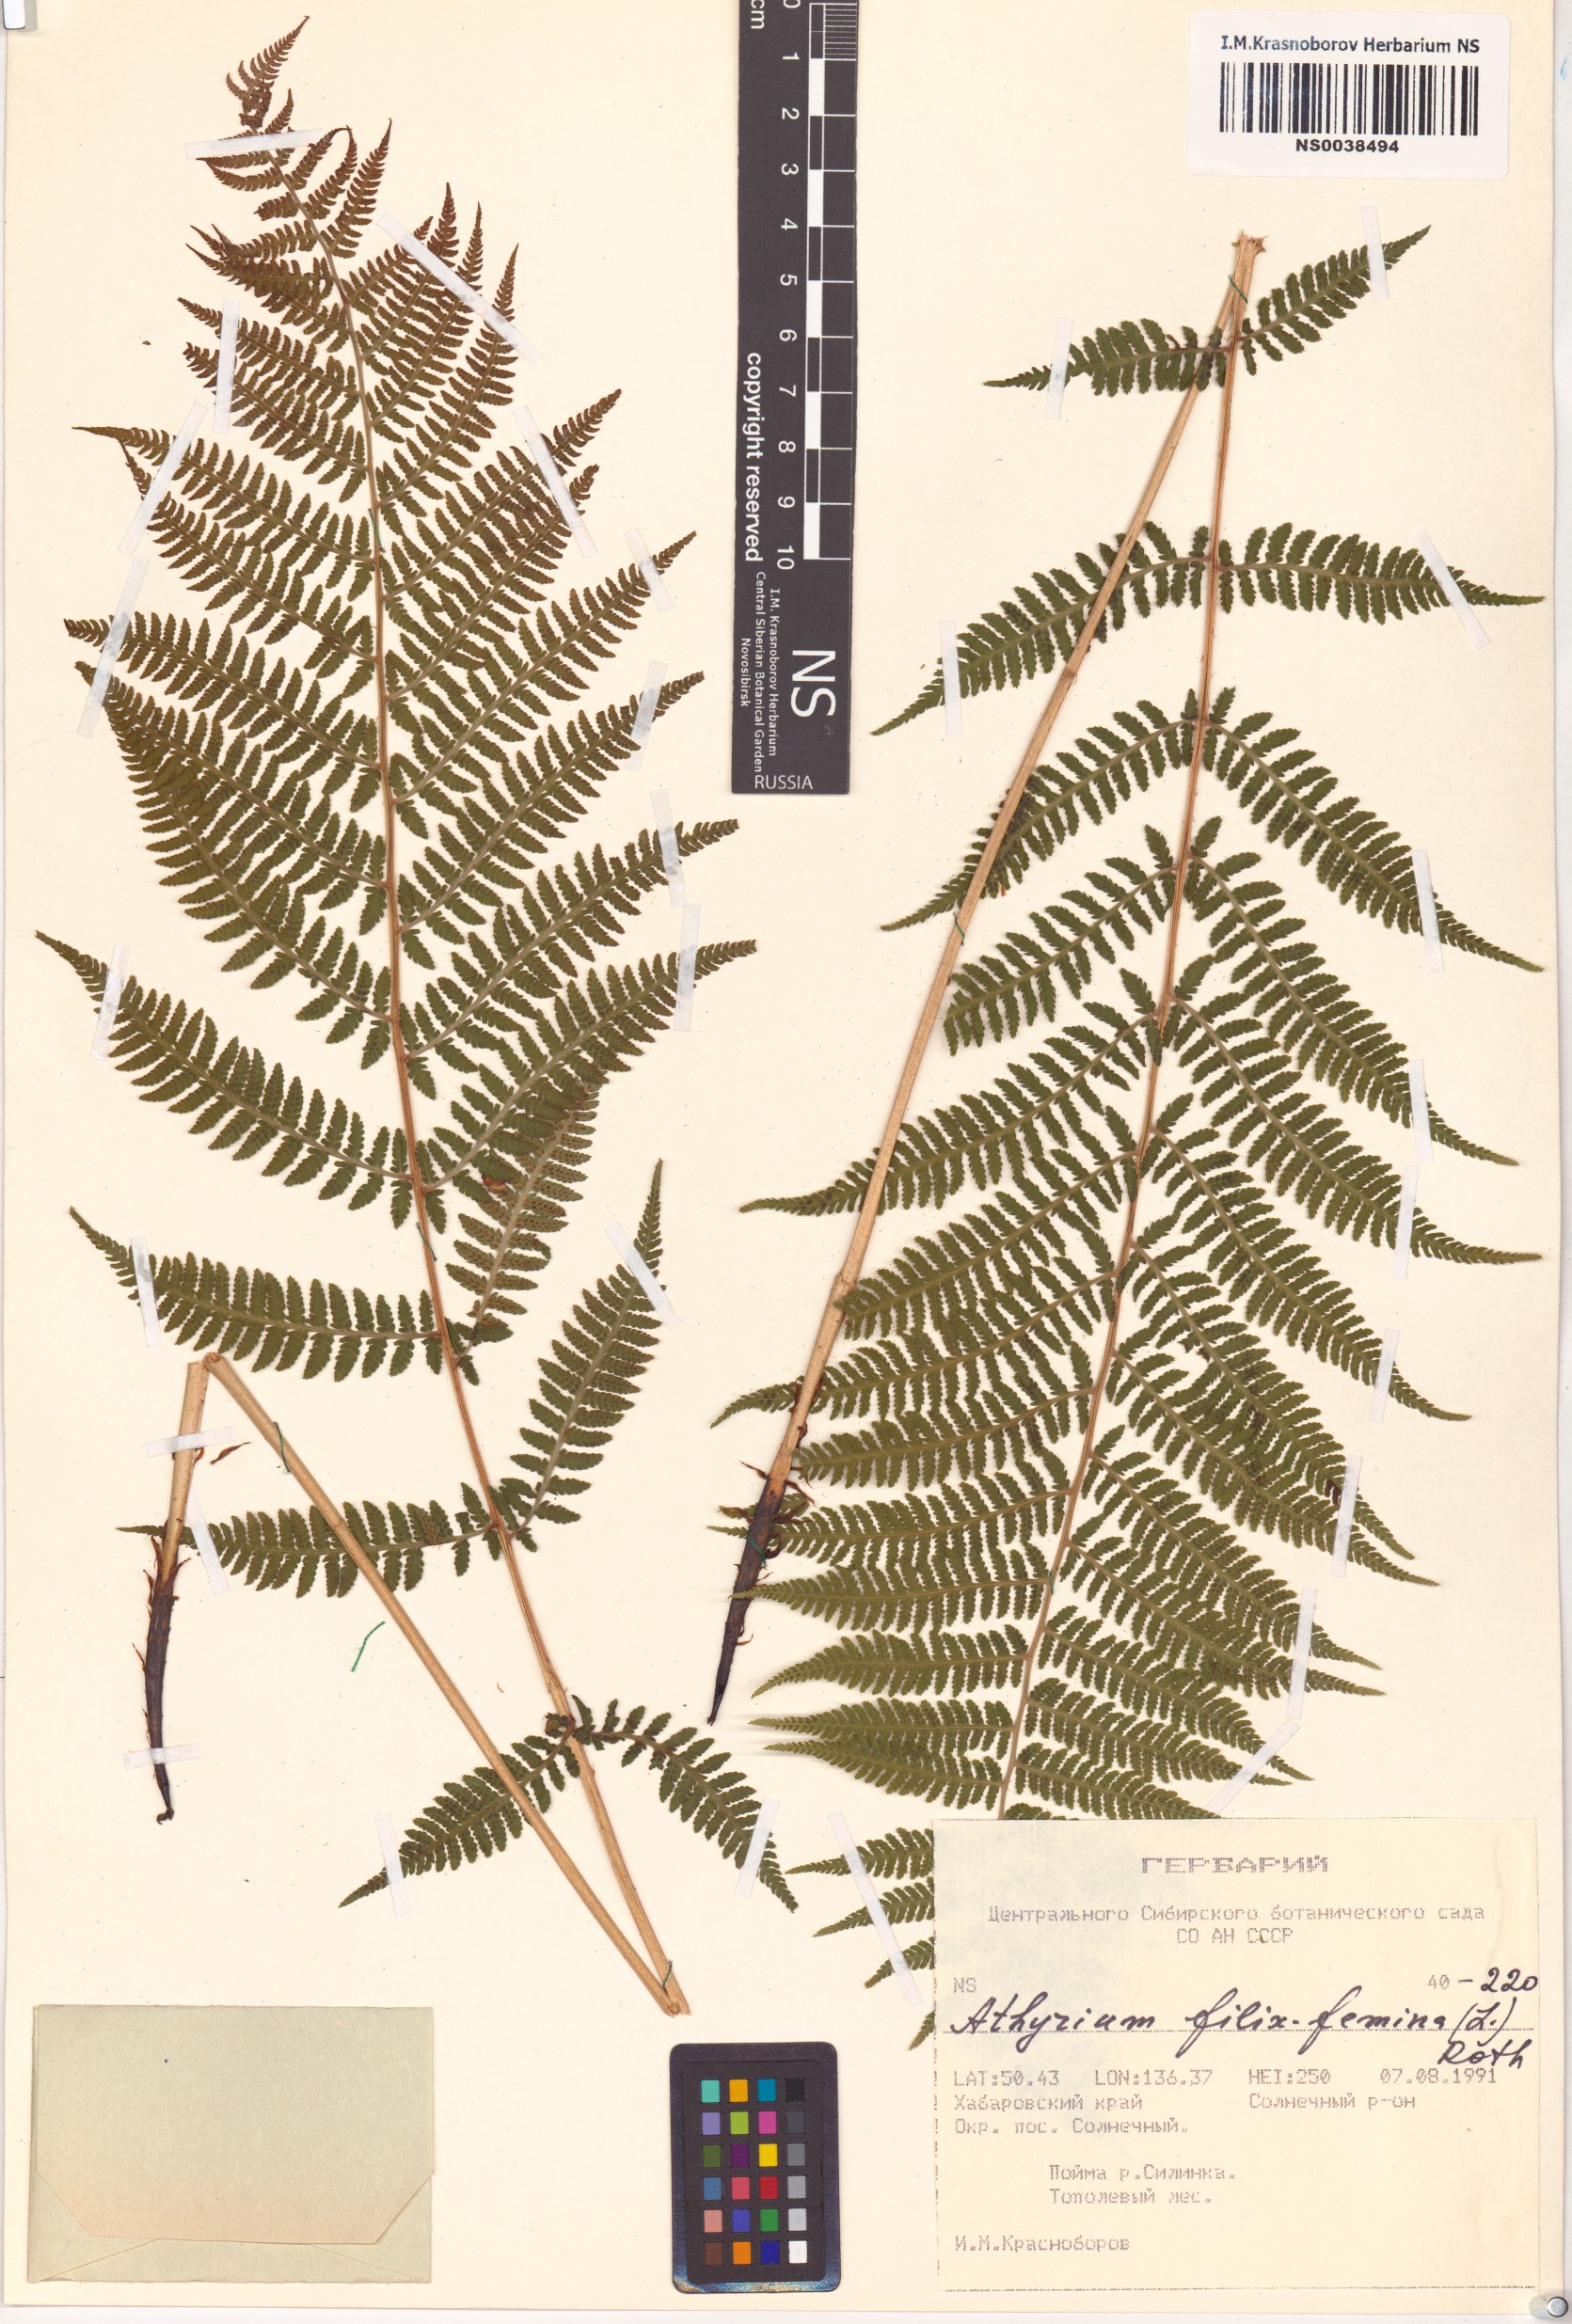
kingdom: Plantae
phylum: Tracheophyta
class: Polypodiopsida
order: Polypodiales
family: Athyriaceae
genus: Athyrium
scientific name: Athyrium filix-femina
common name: Lady fern
